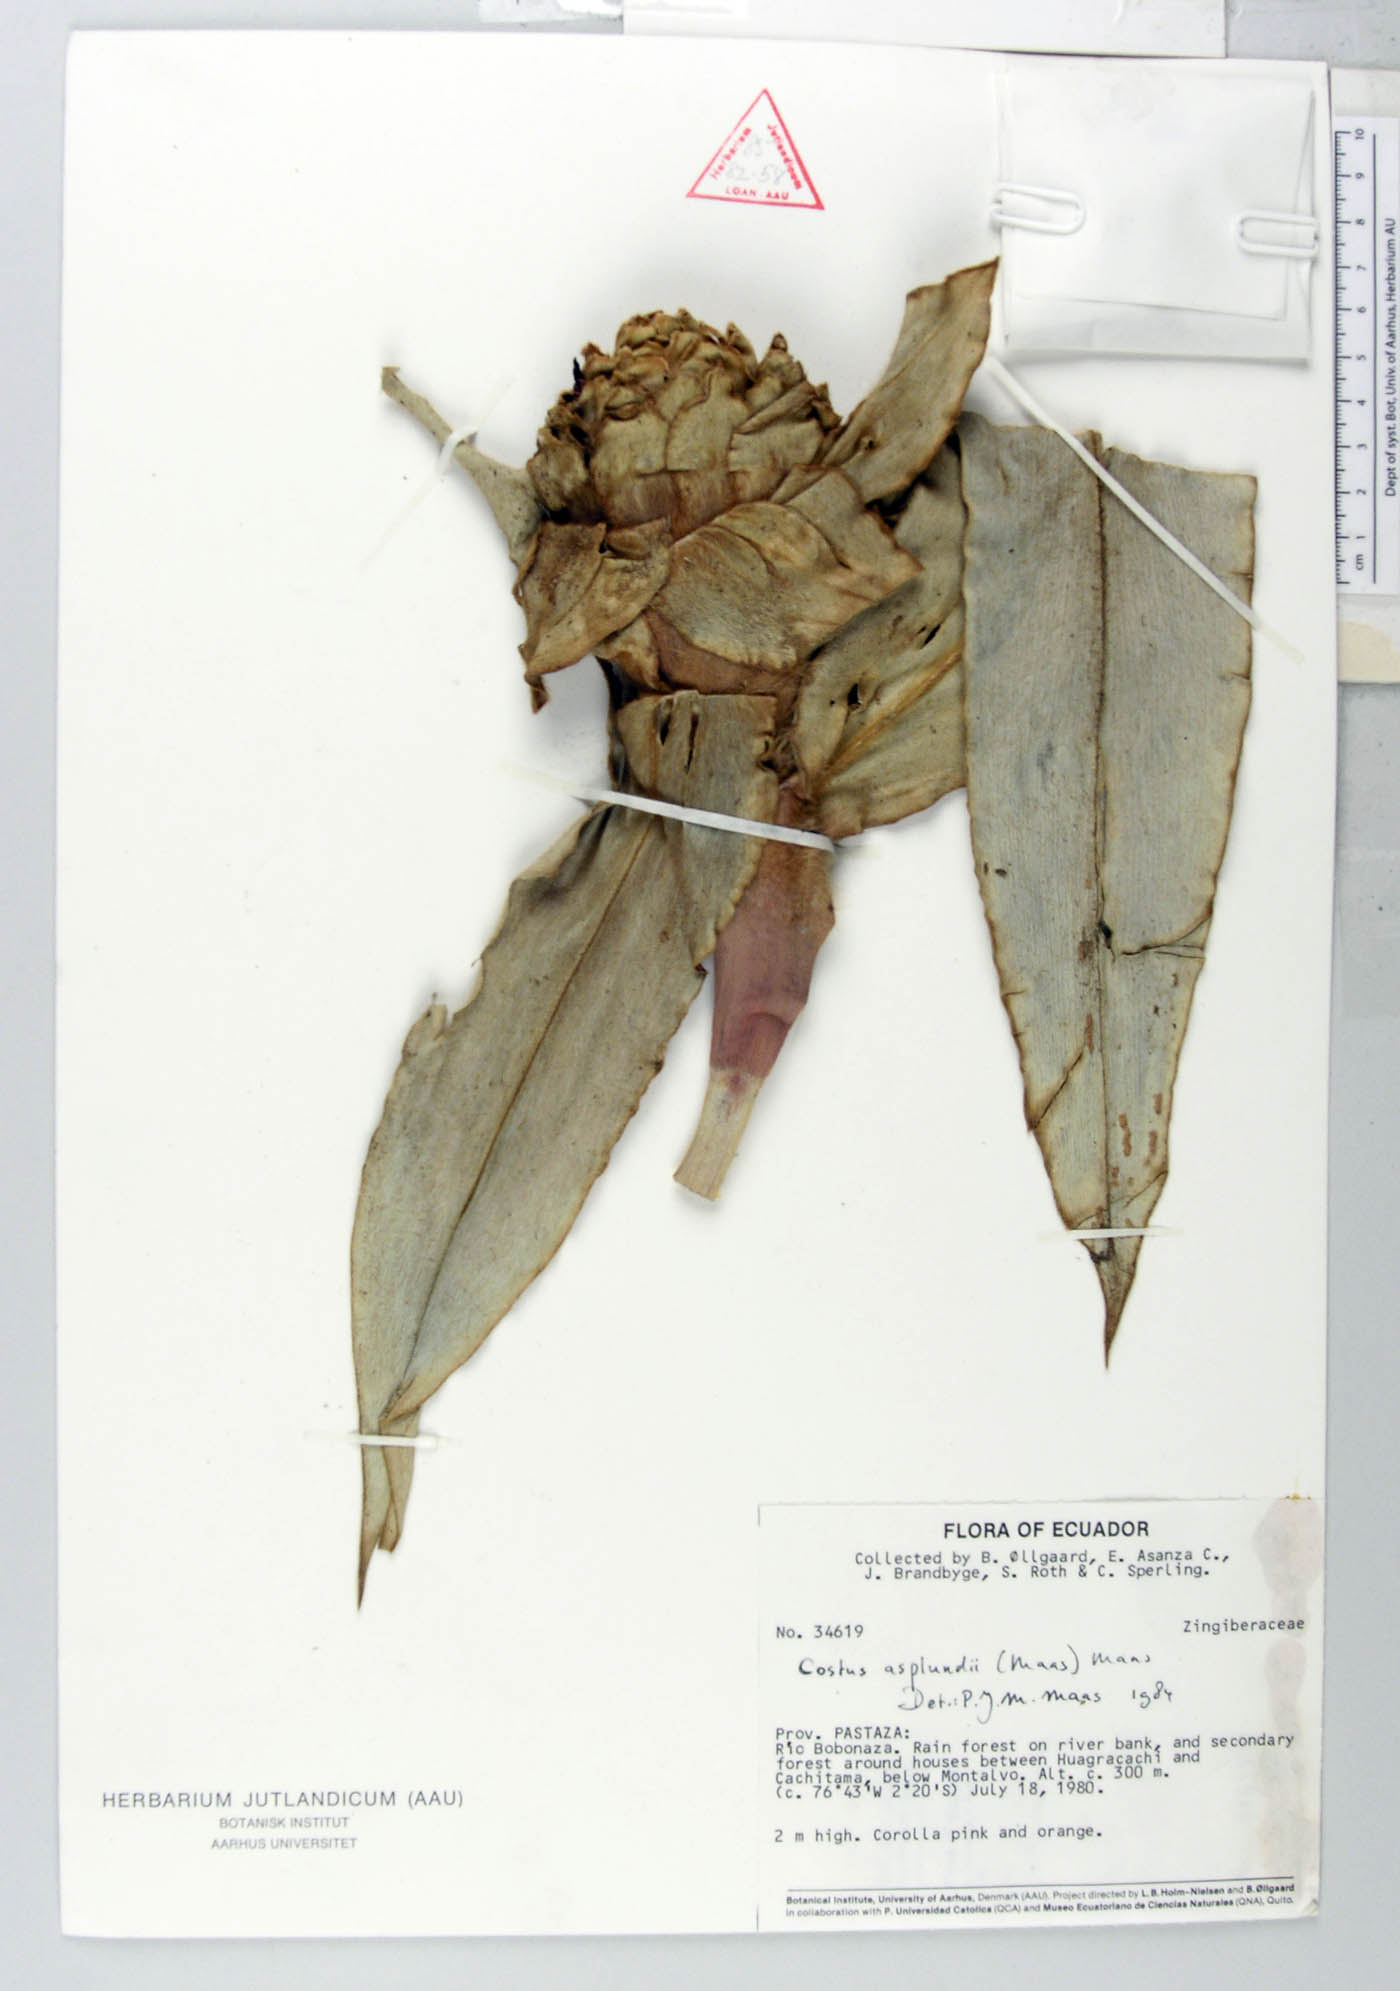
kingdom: Plantae
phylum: Tracheophyta
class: Liliopsida
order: Zingiberales
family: Costaceae
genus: Costus
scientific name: Costus asplundii
